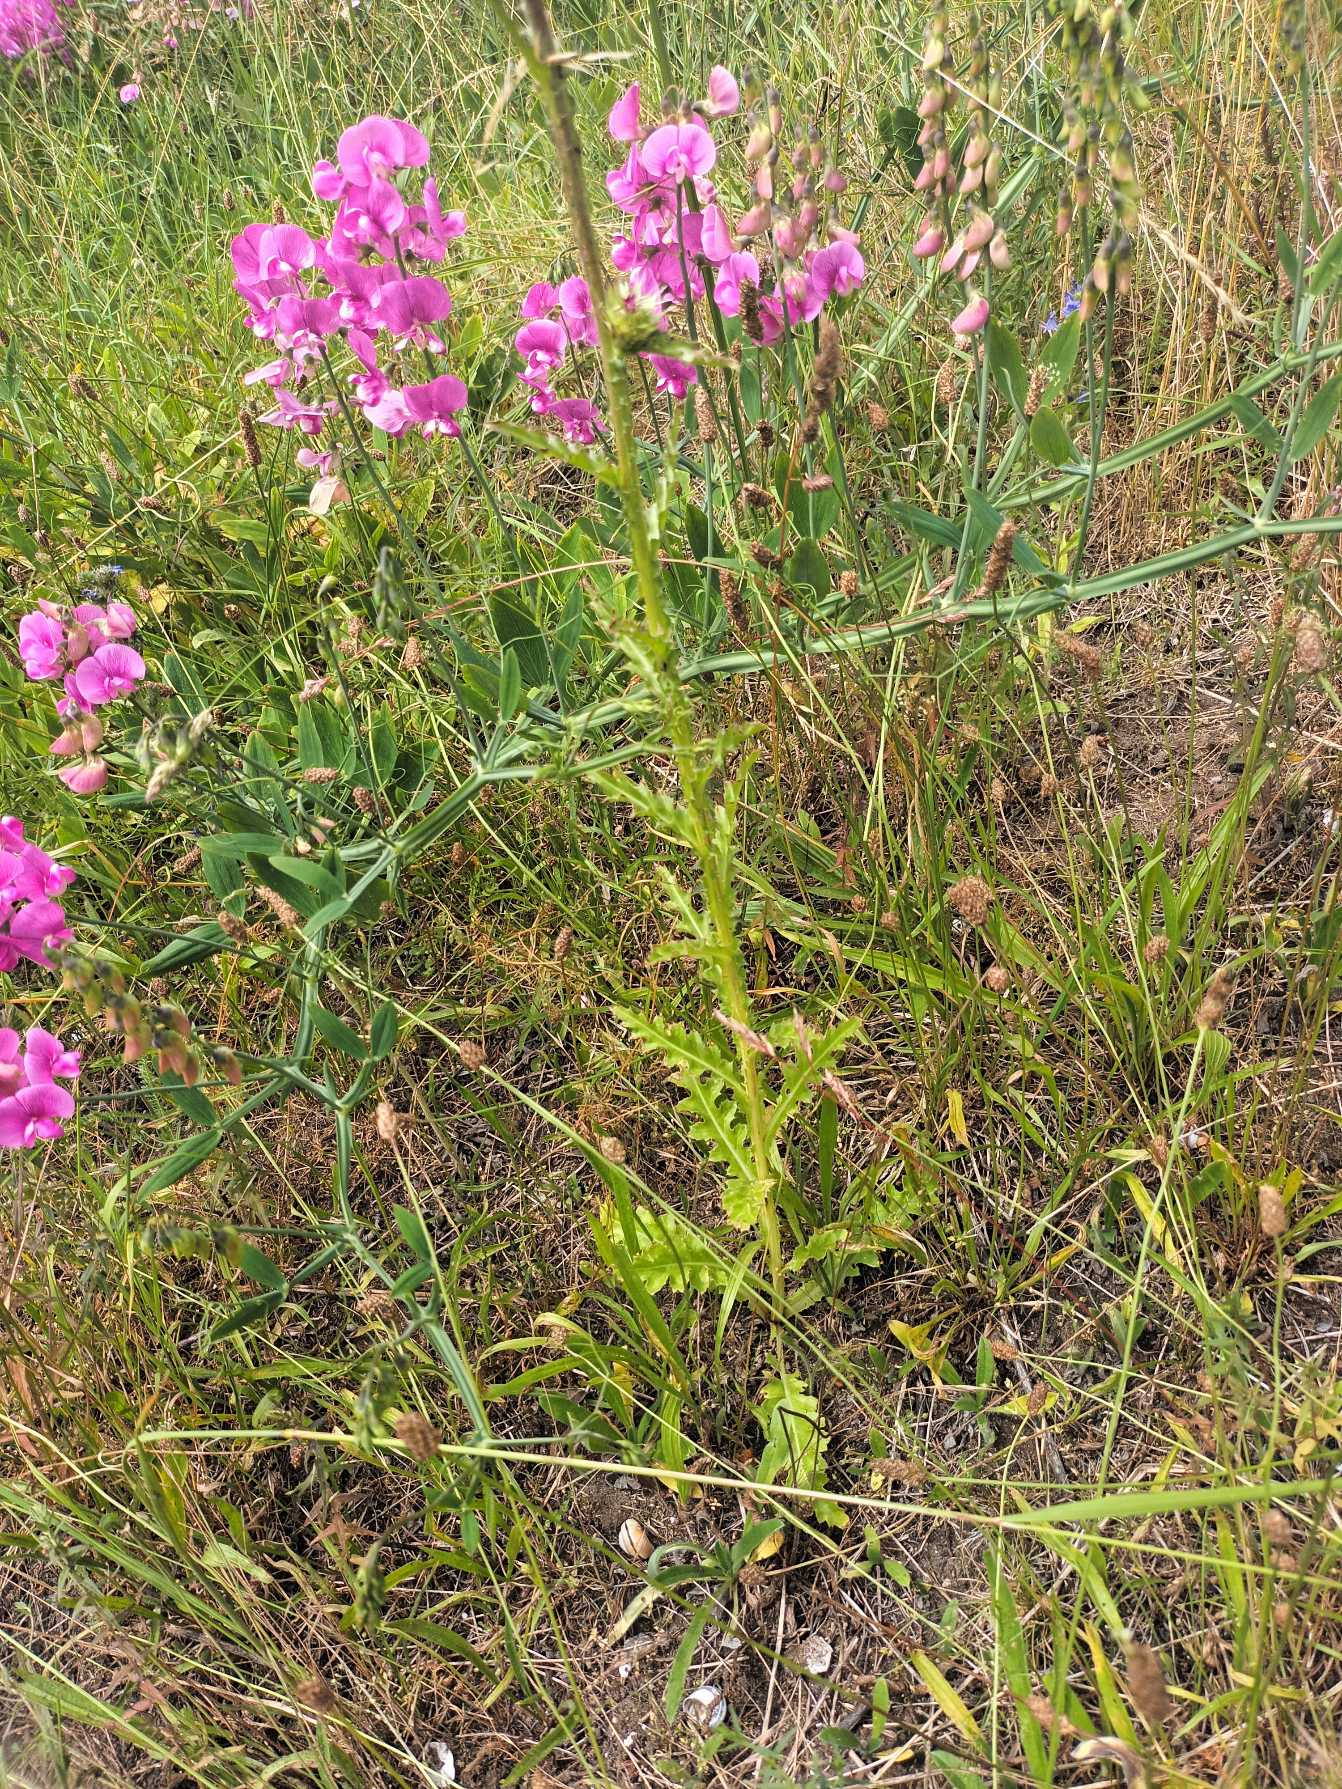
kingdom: Plantae
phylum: Tracheophyta
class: Magnoliopsida
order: Asterales
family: Asteraceae
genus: Carduus
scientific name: Carduus nutans
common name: Olymp-tidsel
